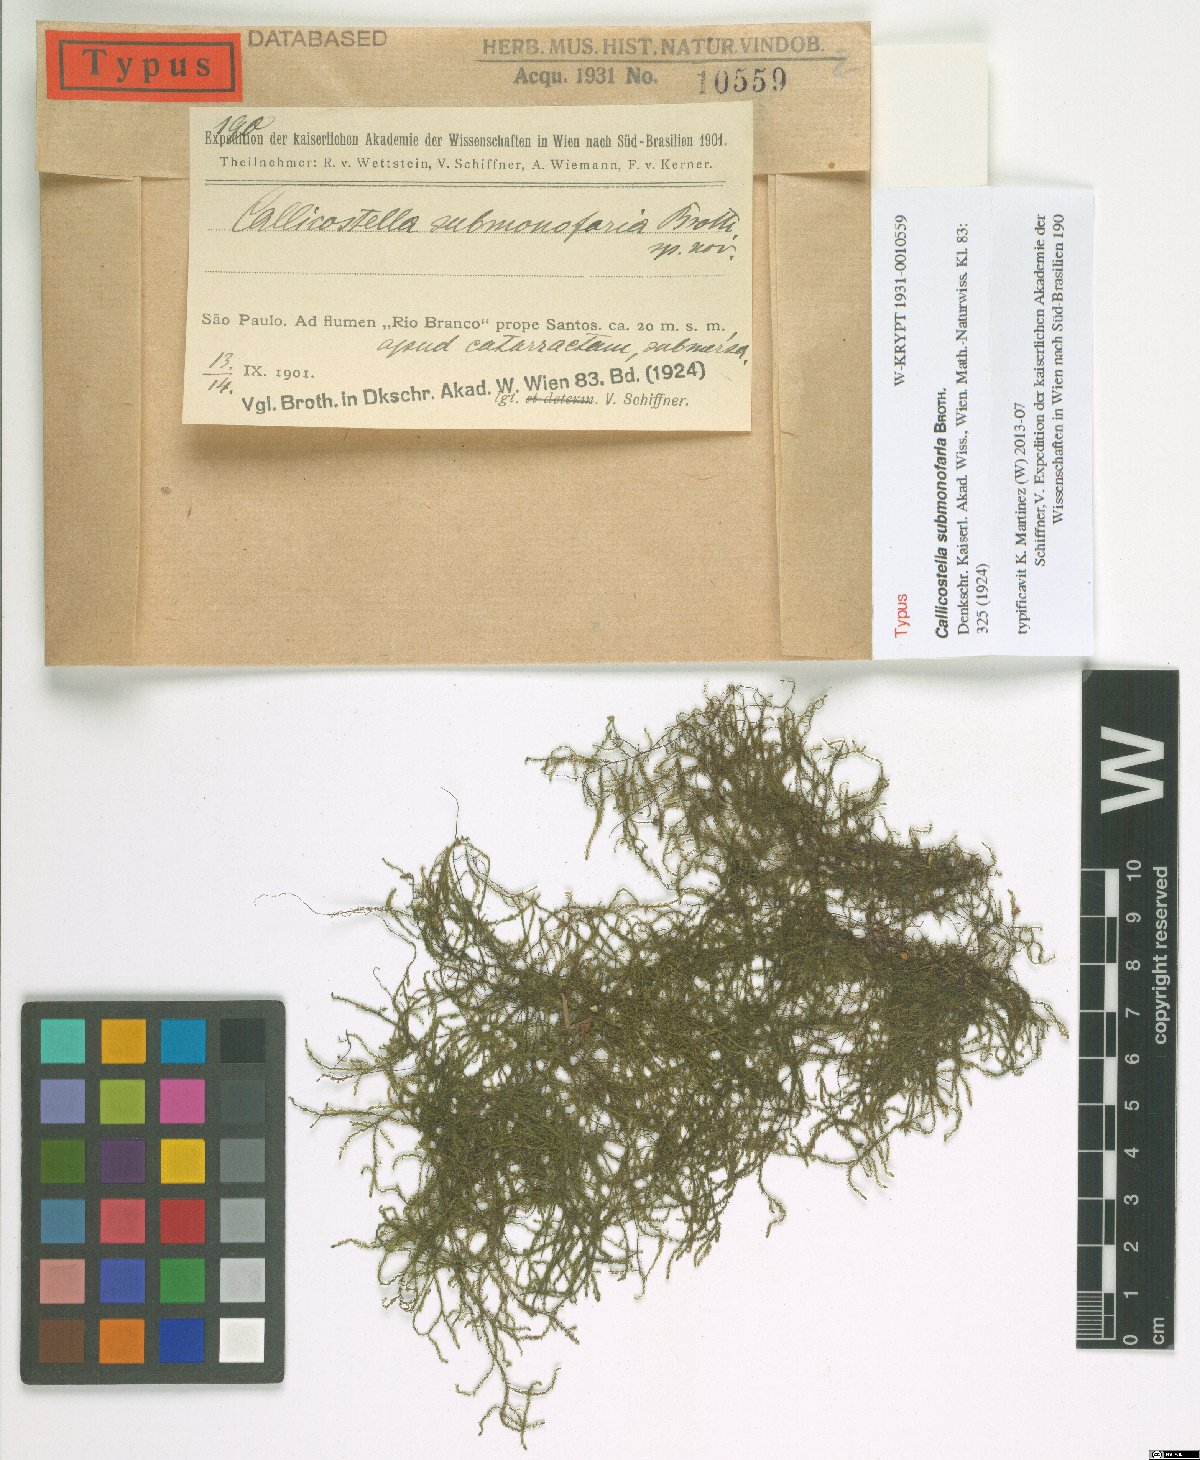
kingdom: Plantae
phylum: Bryophyta
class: Bryopsida
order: Hookeriales
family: Pilotrichaceae
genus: Callicostella
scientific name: Callicostella submonofaria
